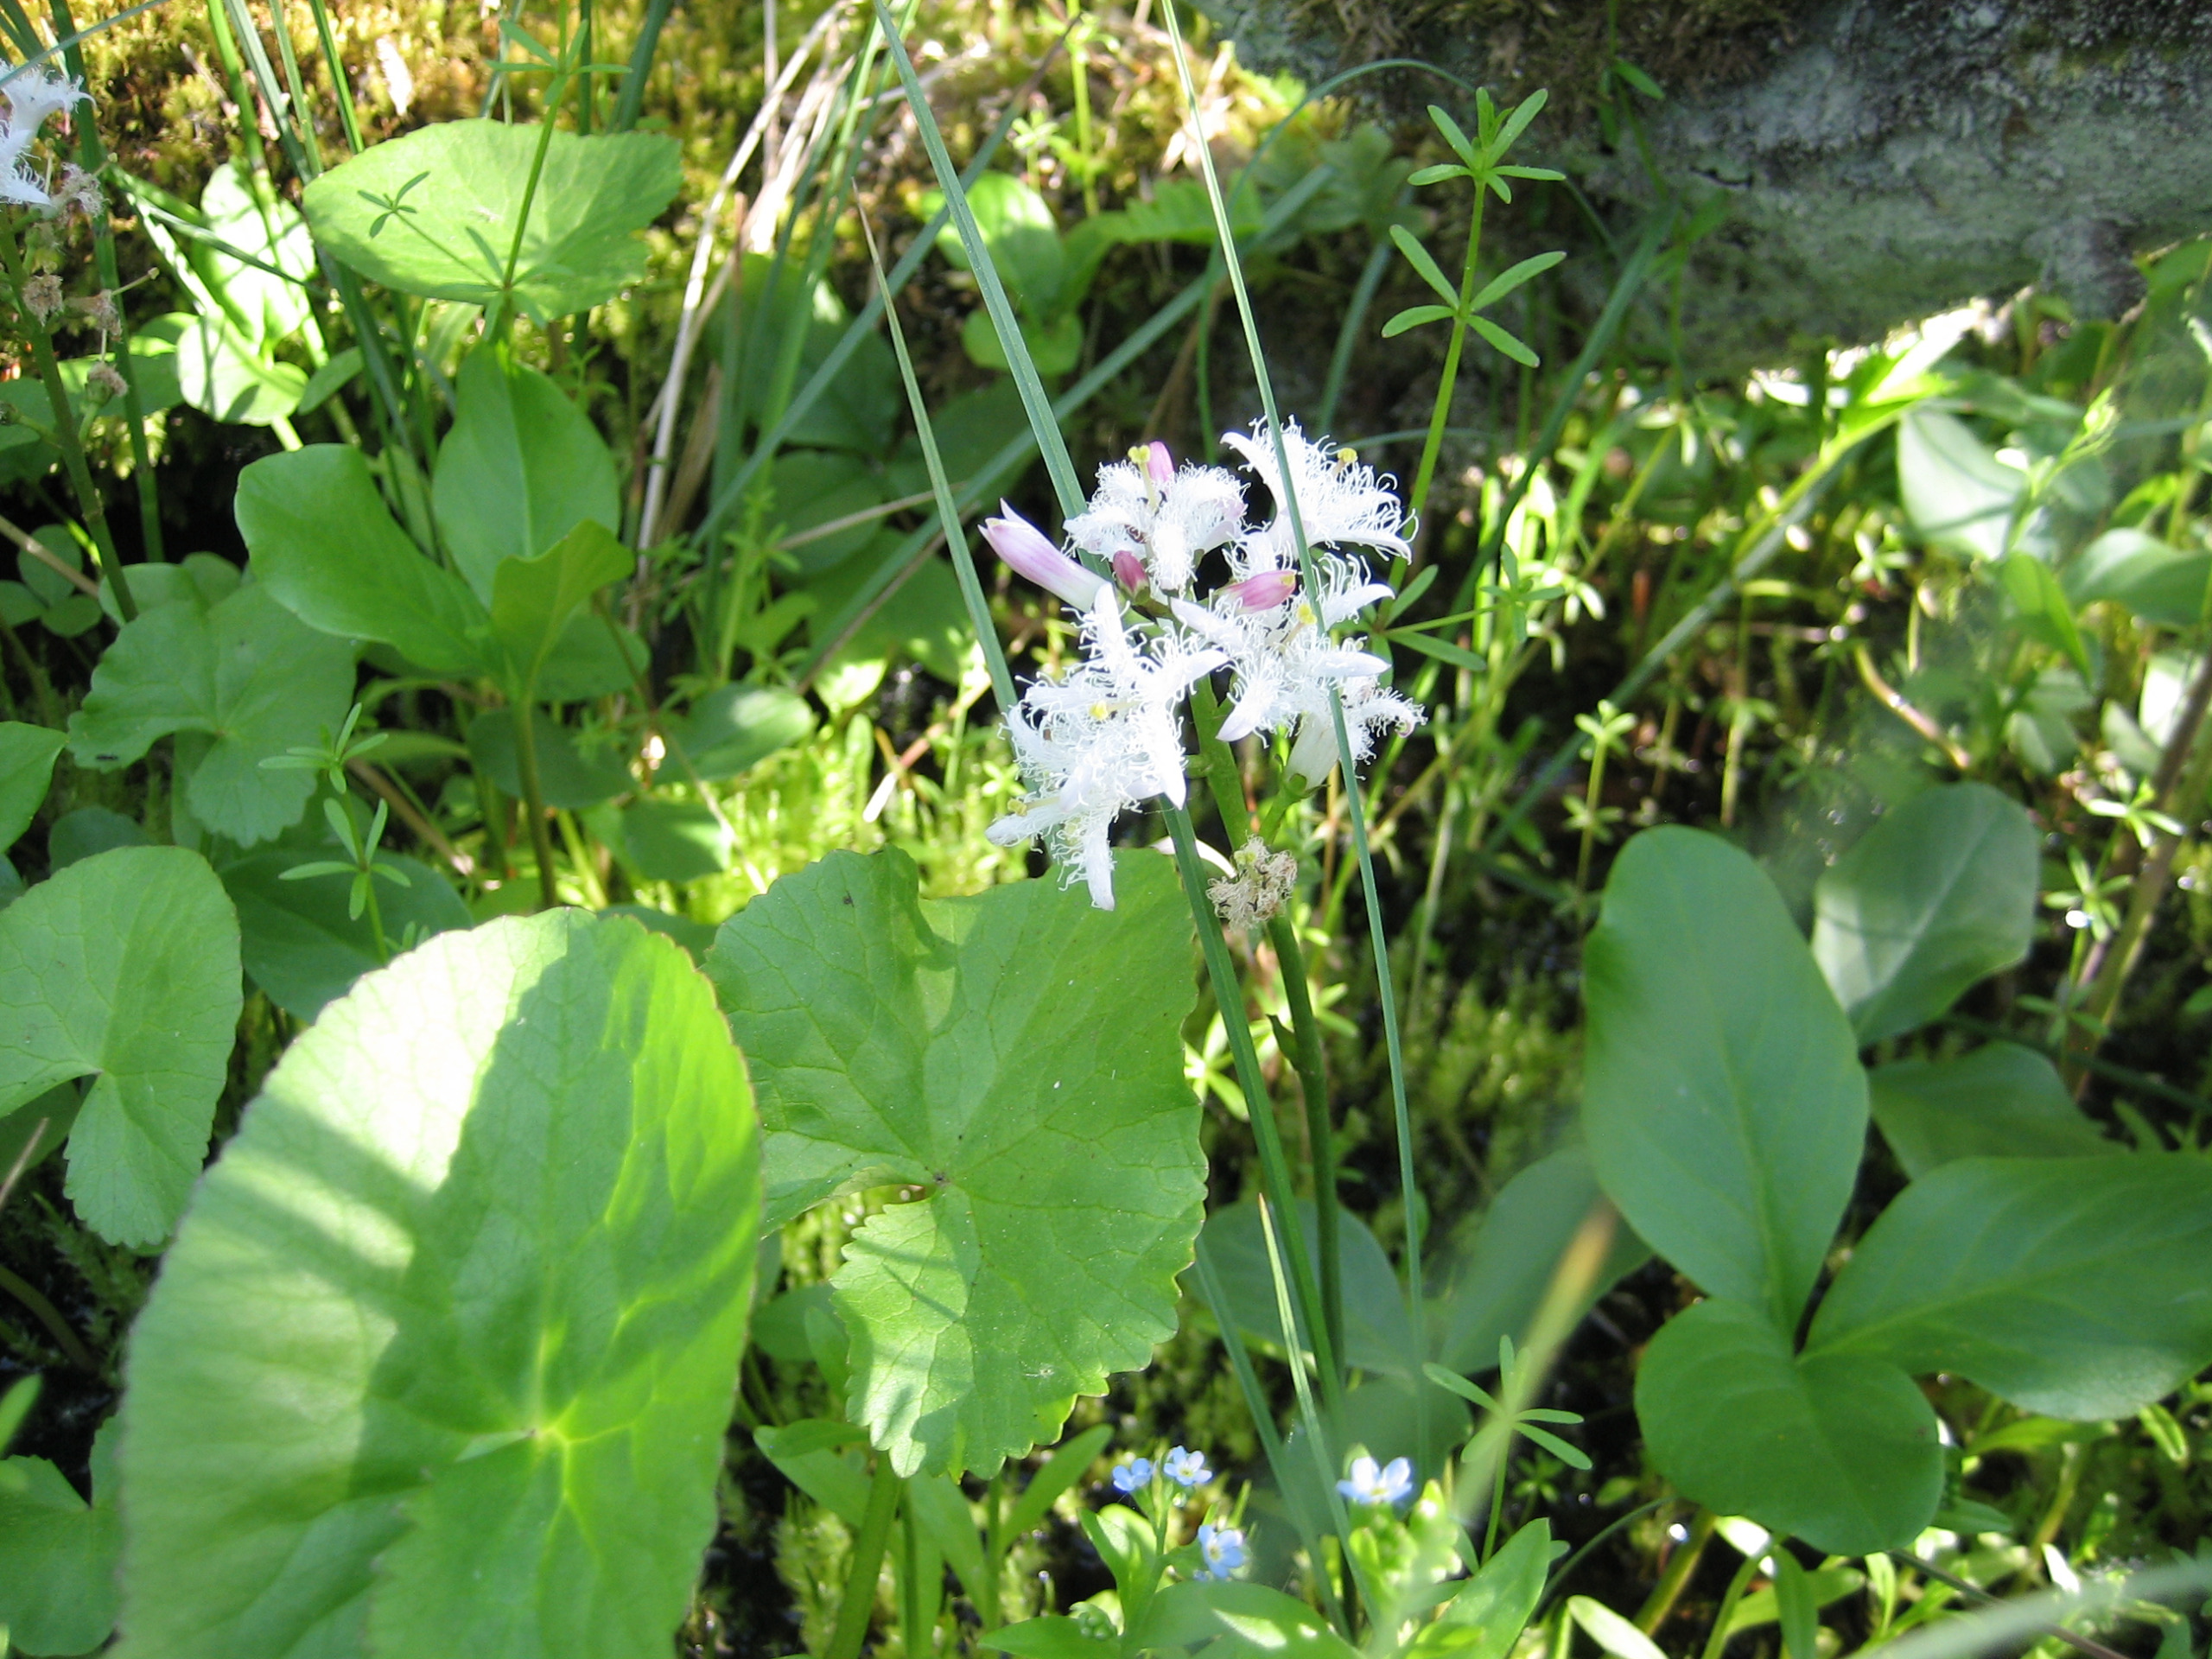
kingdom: Plantae
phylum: Tracheophyta
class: Magnoliopsida
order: Asterales
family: Menyanthaceae
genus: Menyanthes
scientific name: Menyanthes trifoliata
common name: Bukkeblad
